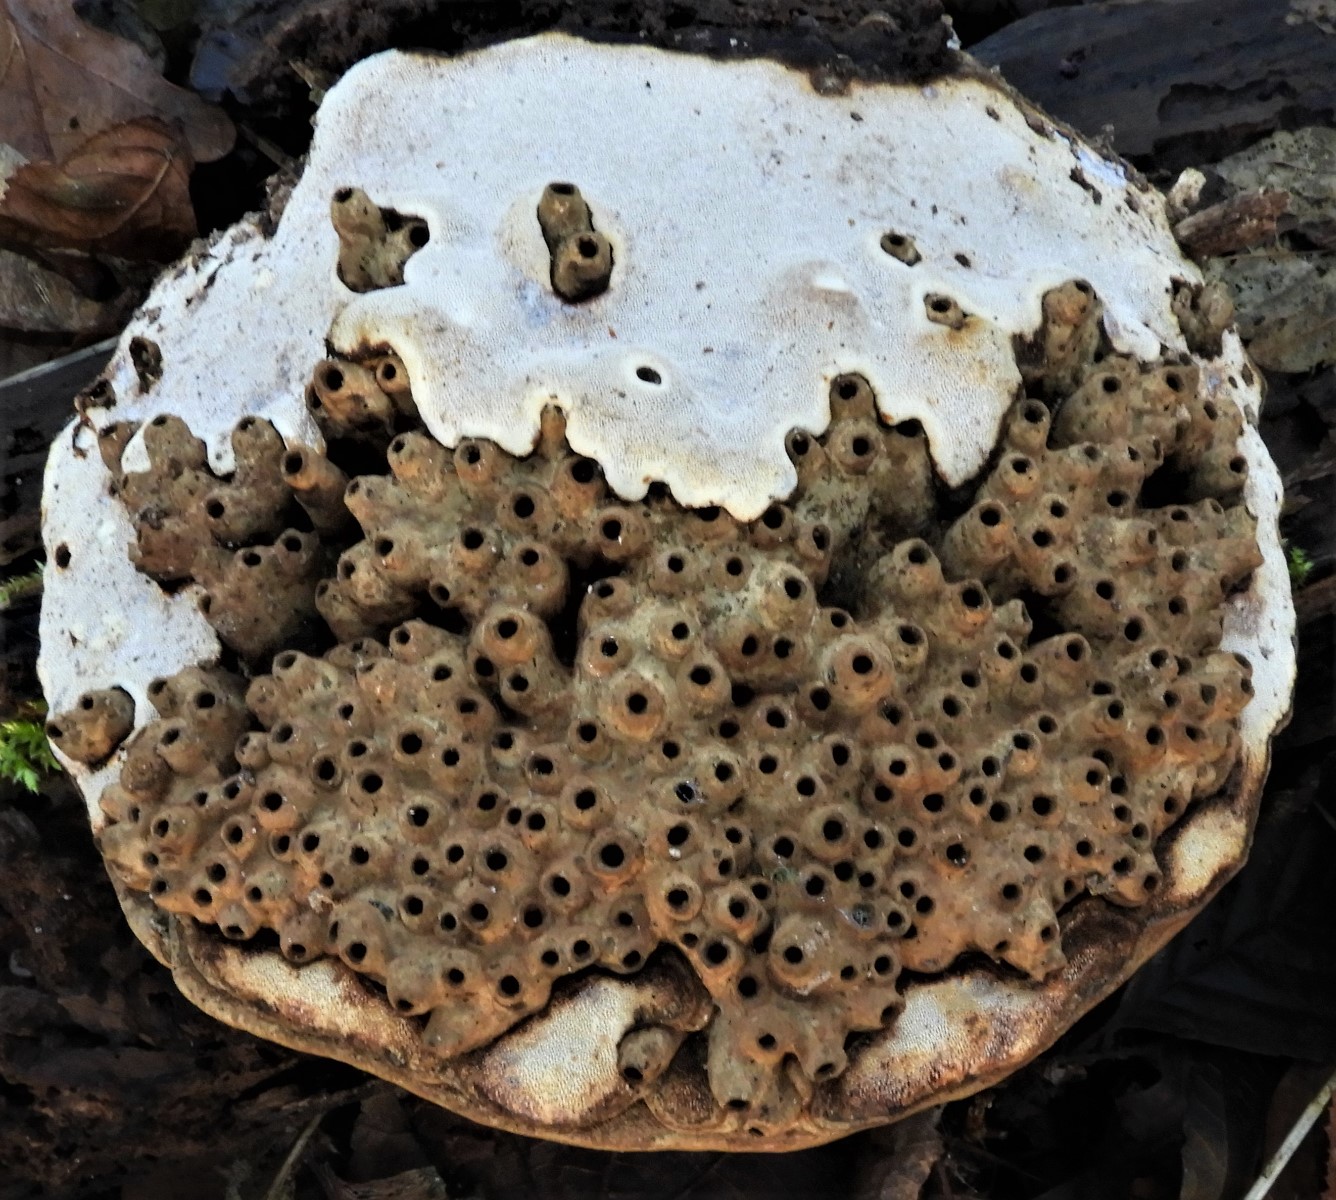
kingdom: Fungi
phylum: Basidiomycota
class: Agaricomycetes
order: Polyporales
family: Polyporaceae
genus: Ganoderma
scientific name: Ganoderma applanatum
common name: flad lakporesvamp
